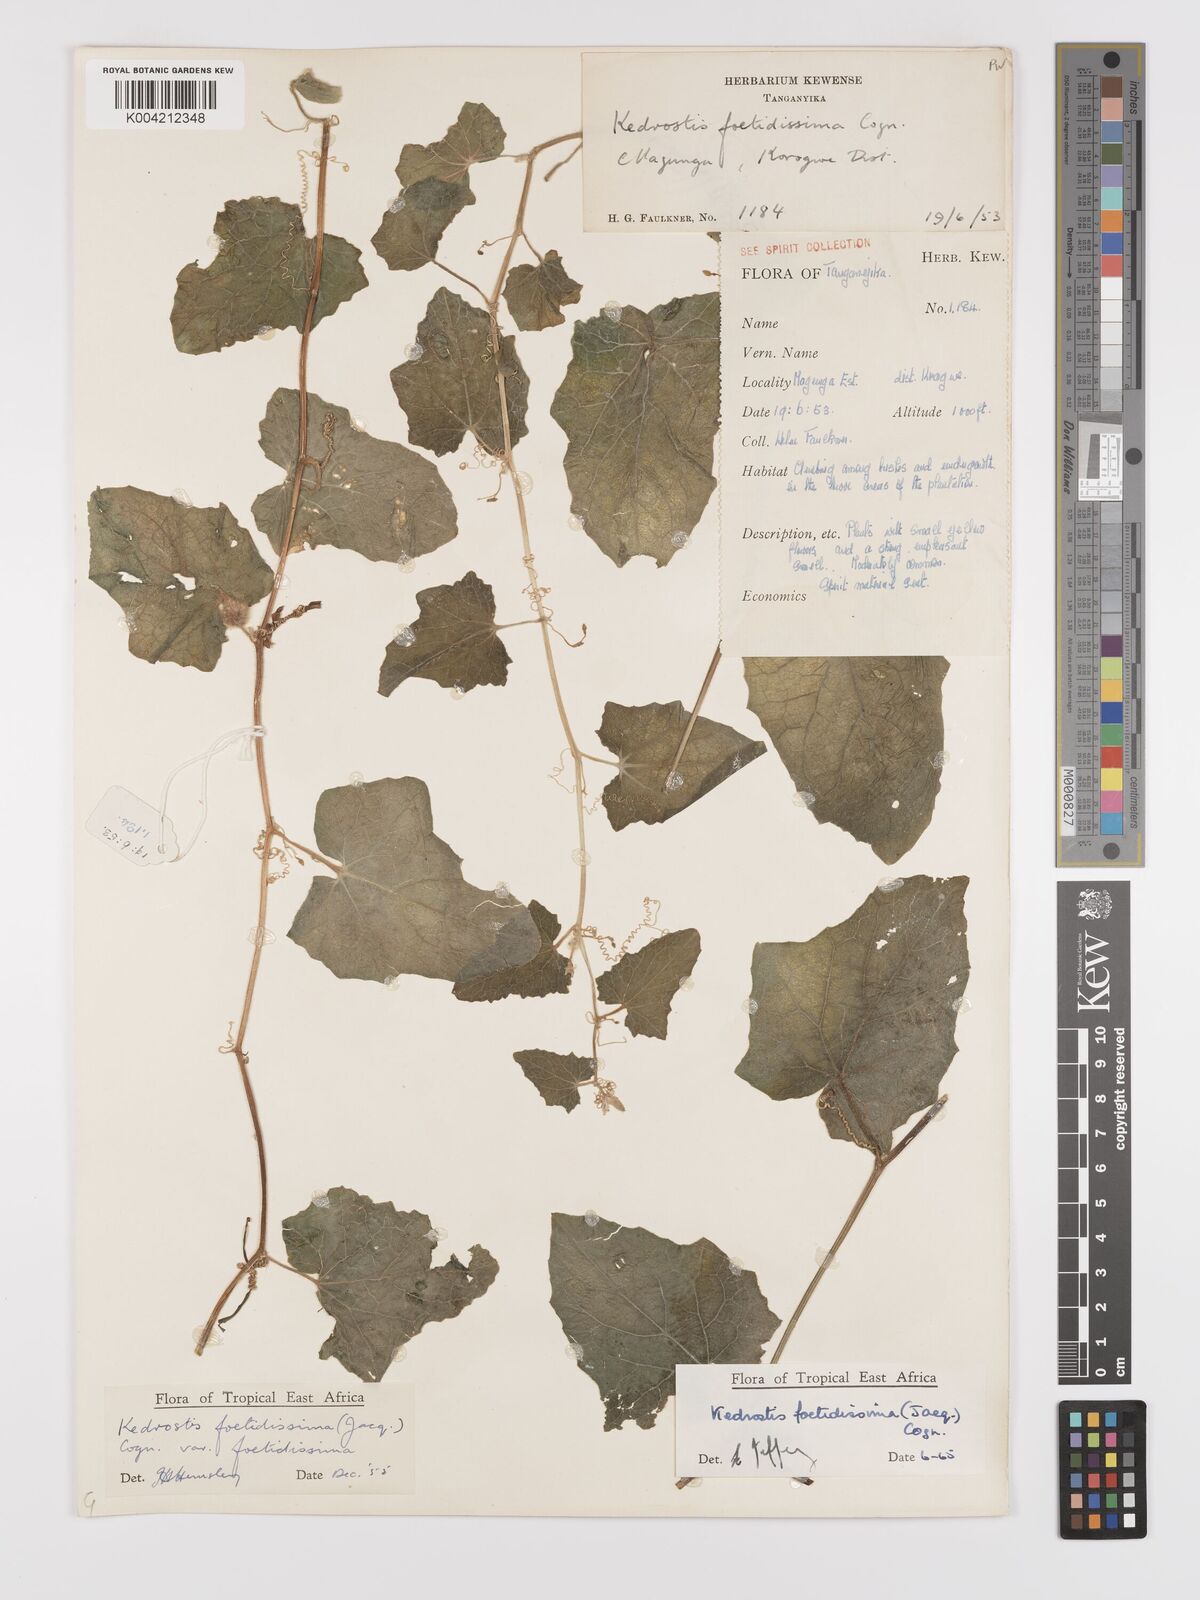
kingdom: Plantae
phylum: Tracheophyta
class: Magnoliopsida
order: Cucurbitales
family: Cucurbitaceae
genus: Kedrostis
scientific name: Kedrostis foetidissima
